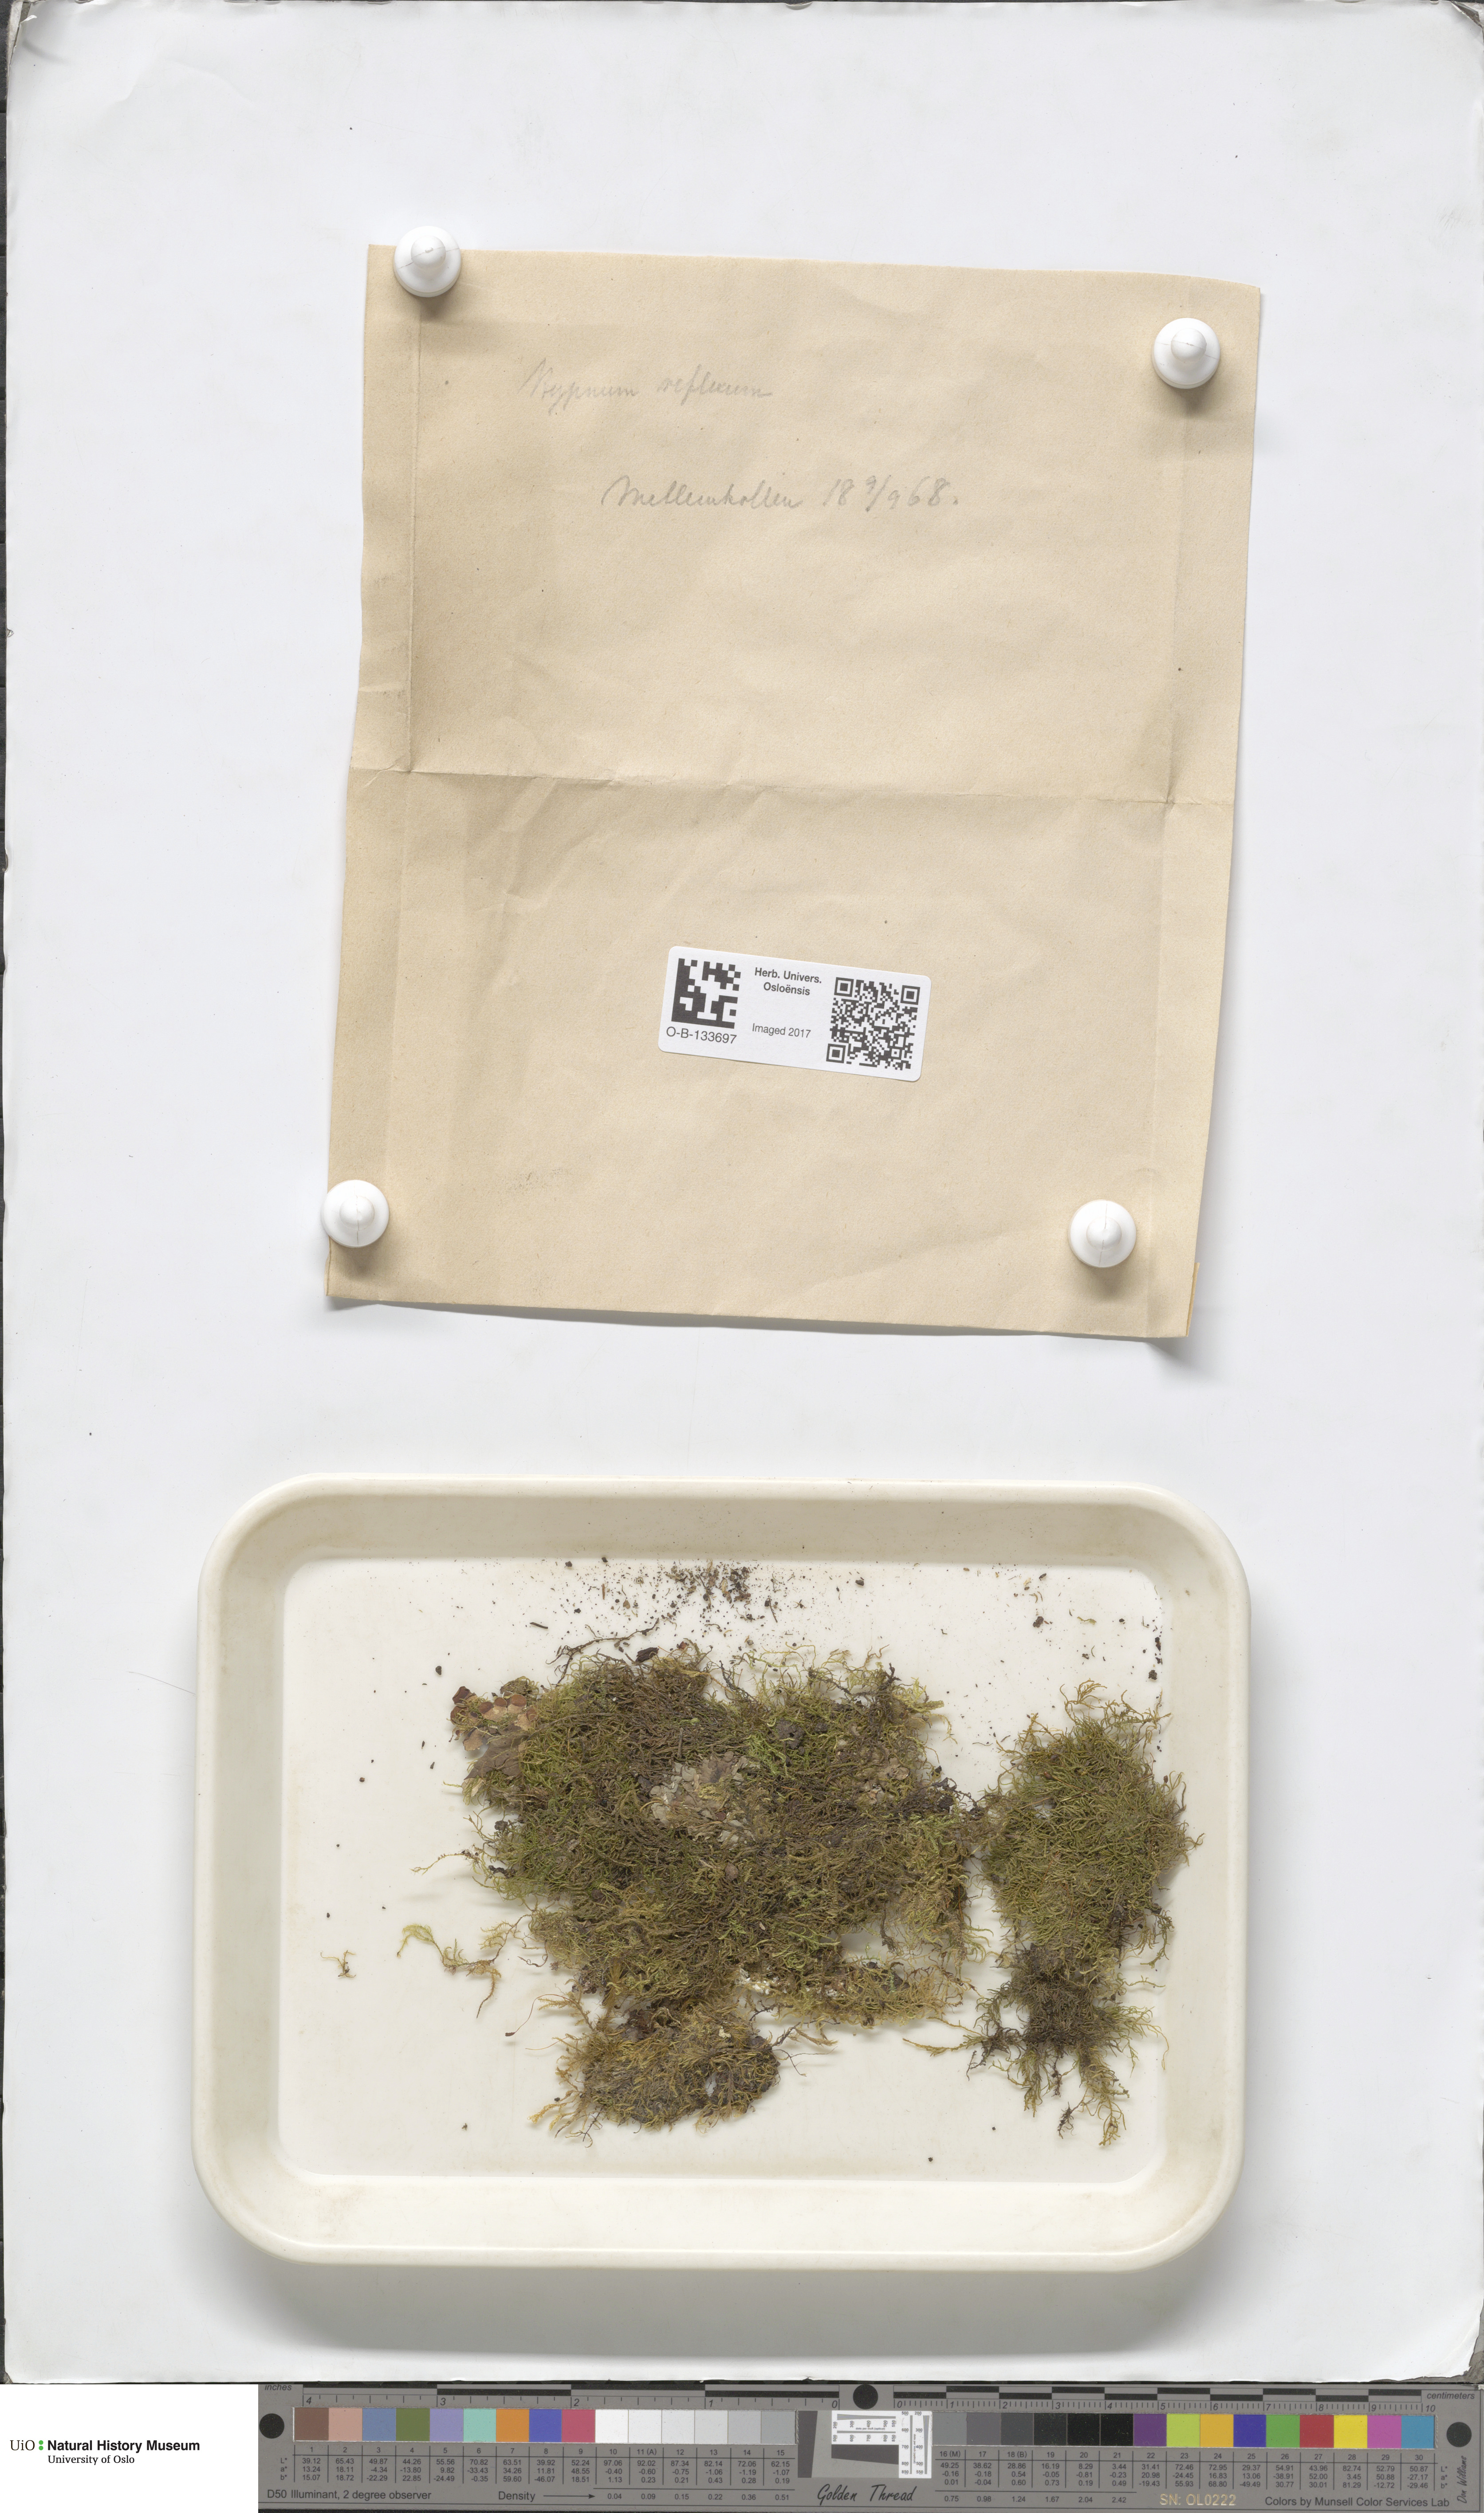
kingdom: Plantae
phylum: Bryophyta
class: Bryopsida
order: Hypnales
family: Brachytheciaceae
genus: Sciuro-hypnum
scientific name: Sciuro-hypnum reflexum
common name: Reflexed feather-moss
